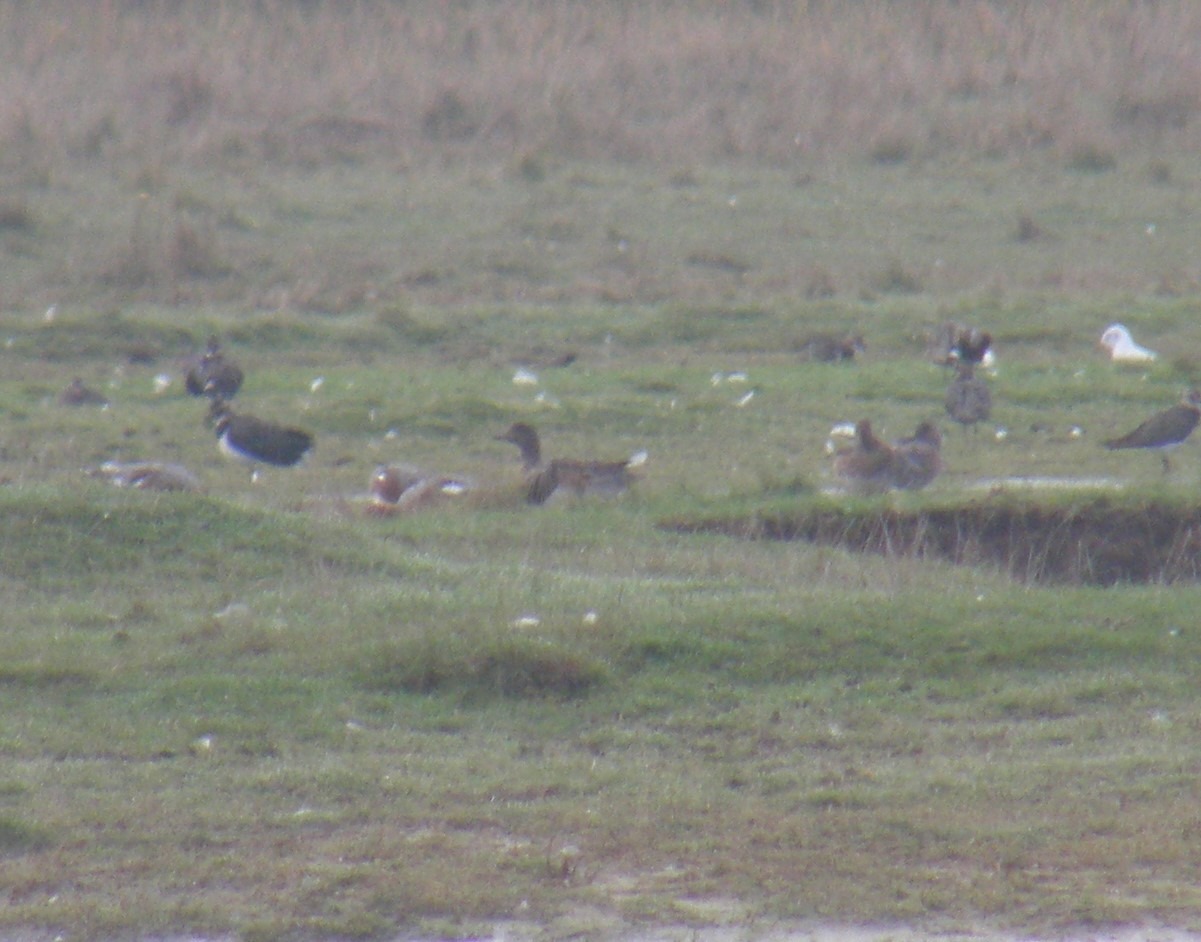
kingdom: Animalia
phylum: Chordata
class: Aves
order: Anseriformes
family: Anatidae
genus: Mareca
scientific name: Mareca penelope
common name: Pibeand
